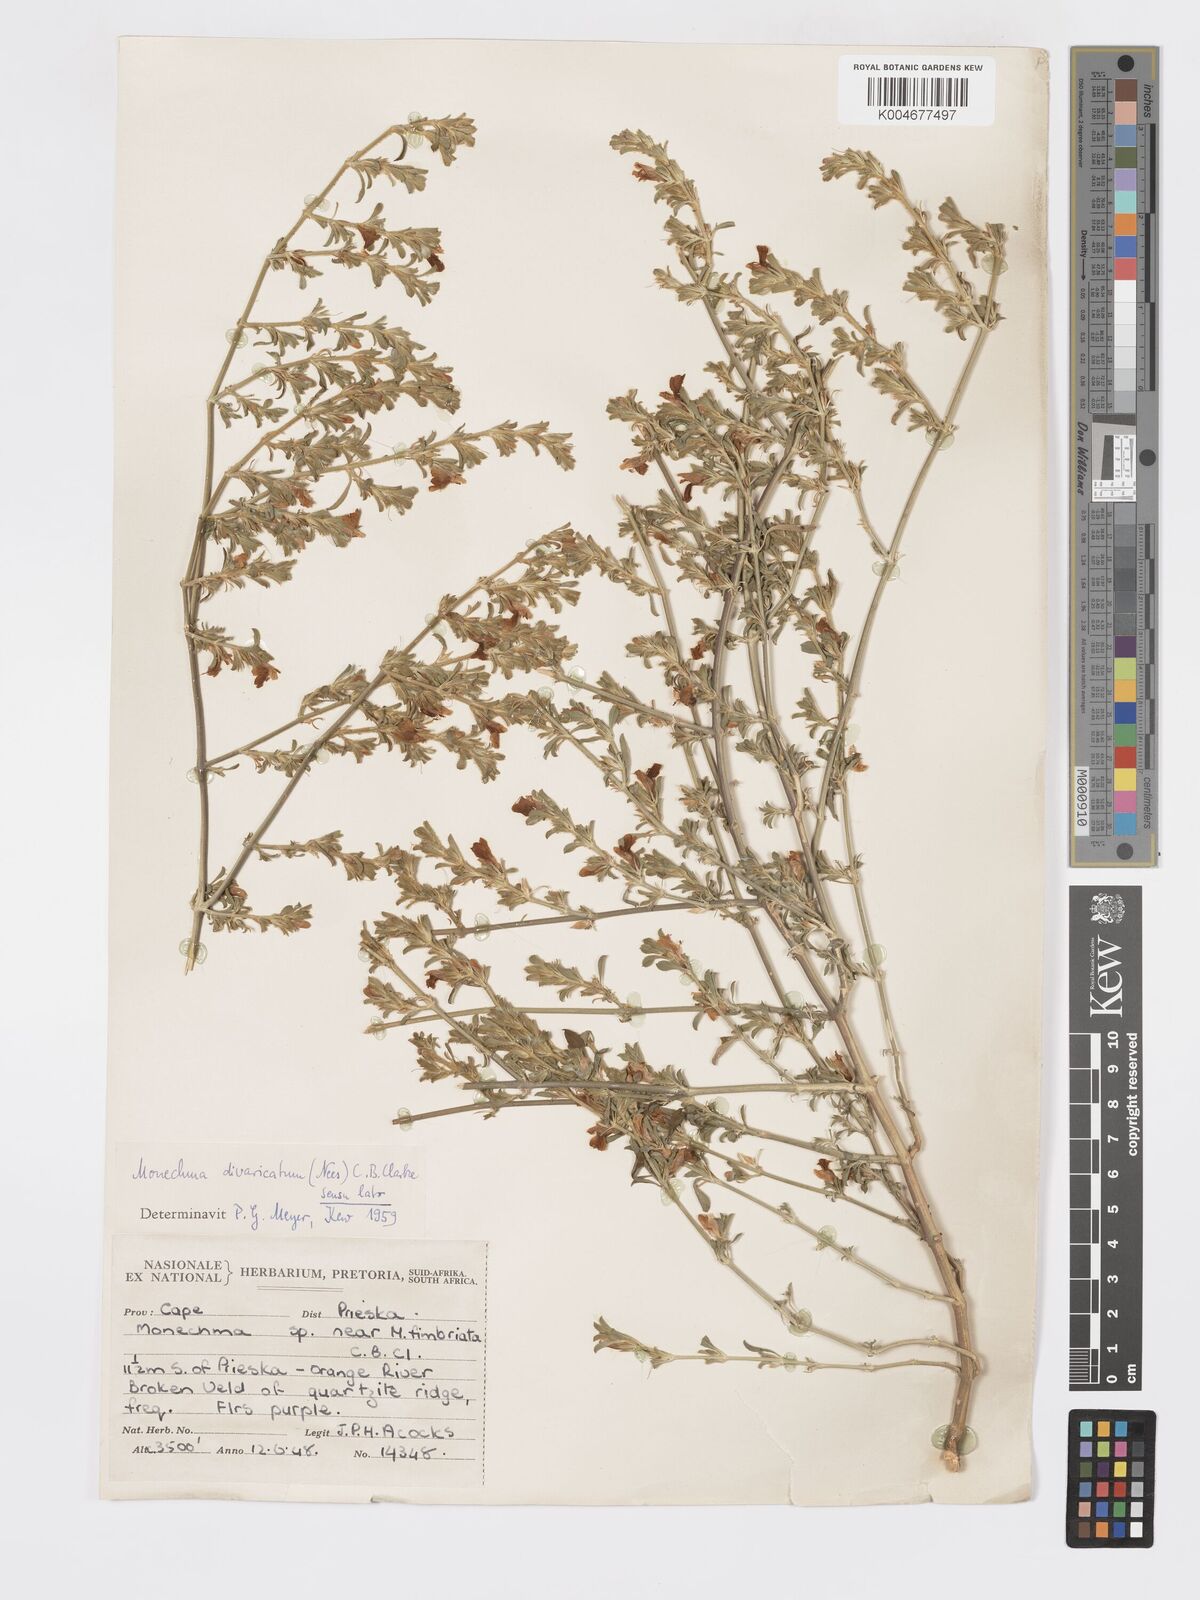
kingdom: Plantae
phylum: Tracheophyta
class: Magnoliopsida
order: Lamiales
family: Acanthaceae
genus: Pogonospermum
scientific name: Pogonospermum
